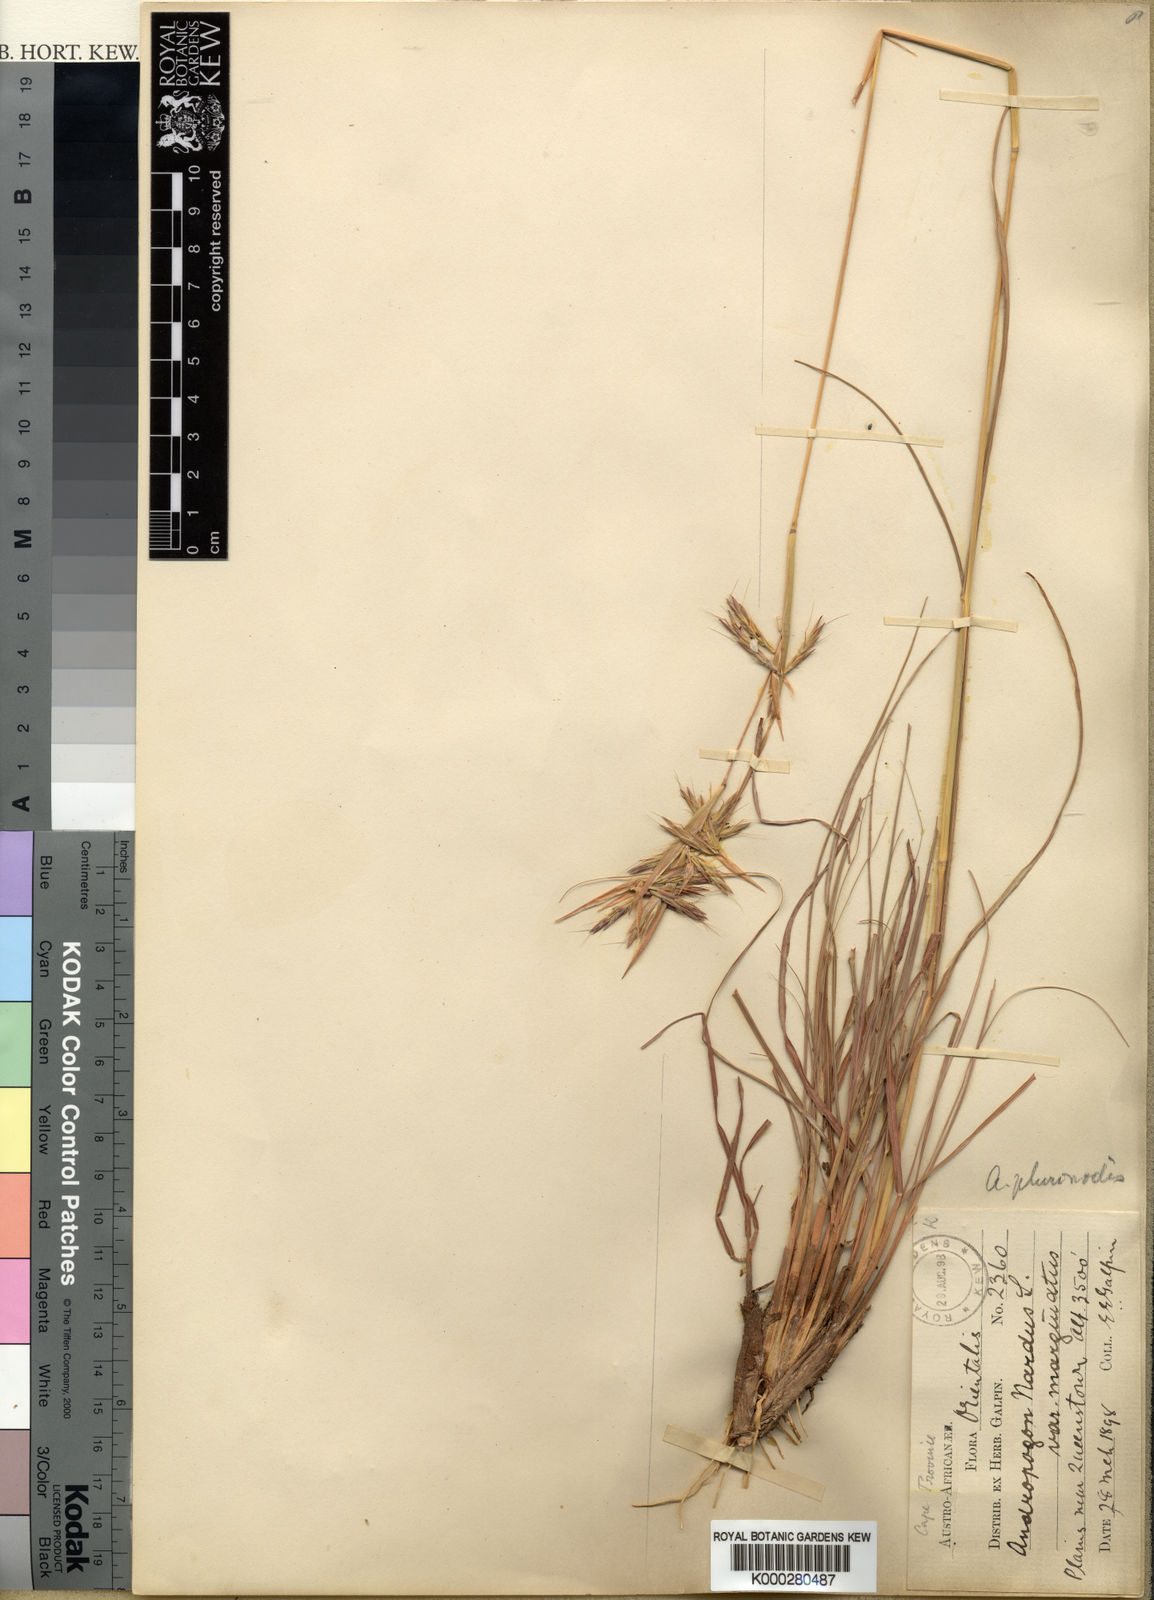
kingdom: Plantae
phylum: Tracheophyta
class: Liliopsida
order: Poales
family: Poaceae
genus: Cymbopogon
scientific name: Cymbopogon pospischilii
